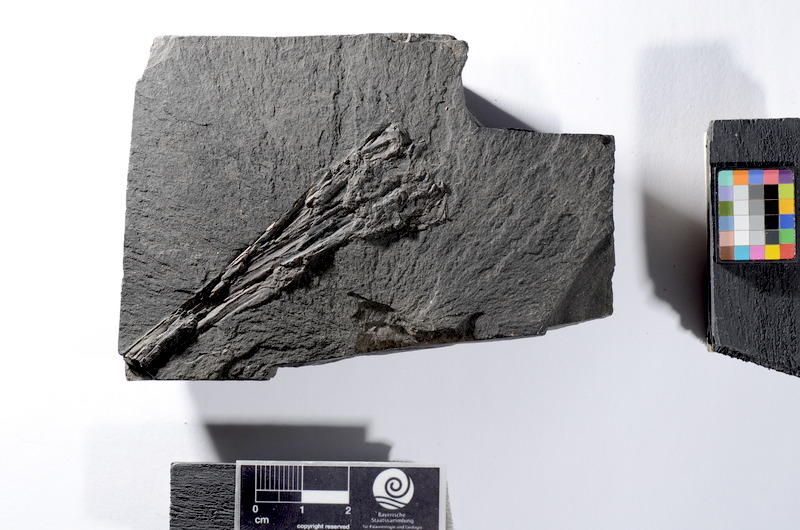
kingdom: Animalia
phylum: Chordata
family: Saurichthyidae
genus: Saurichthys
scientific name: Saurichthys
